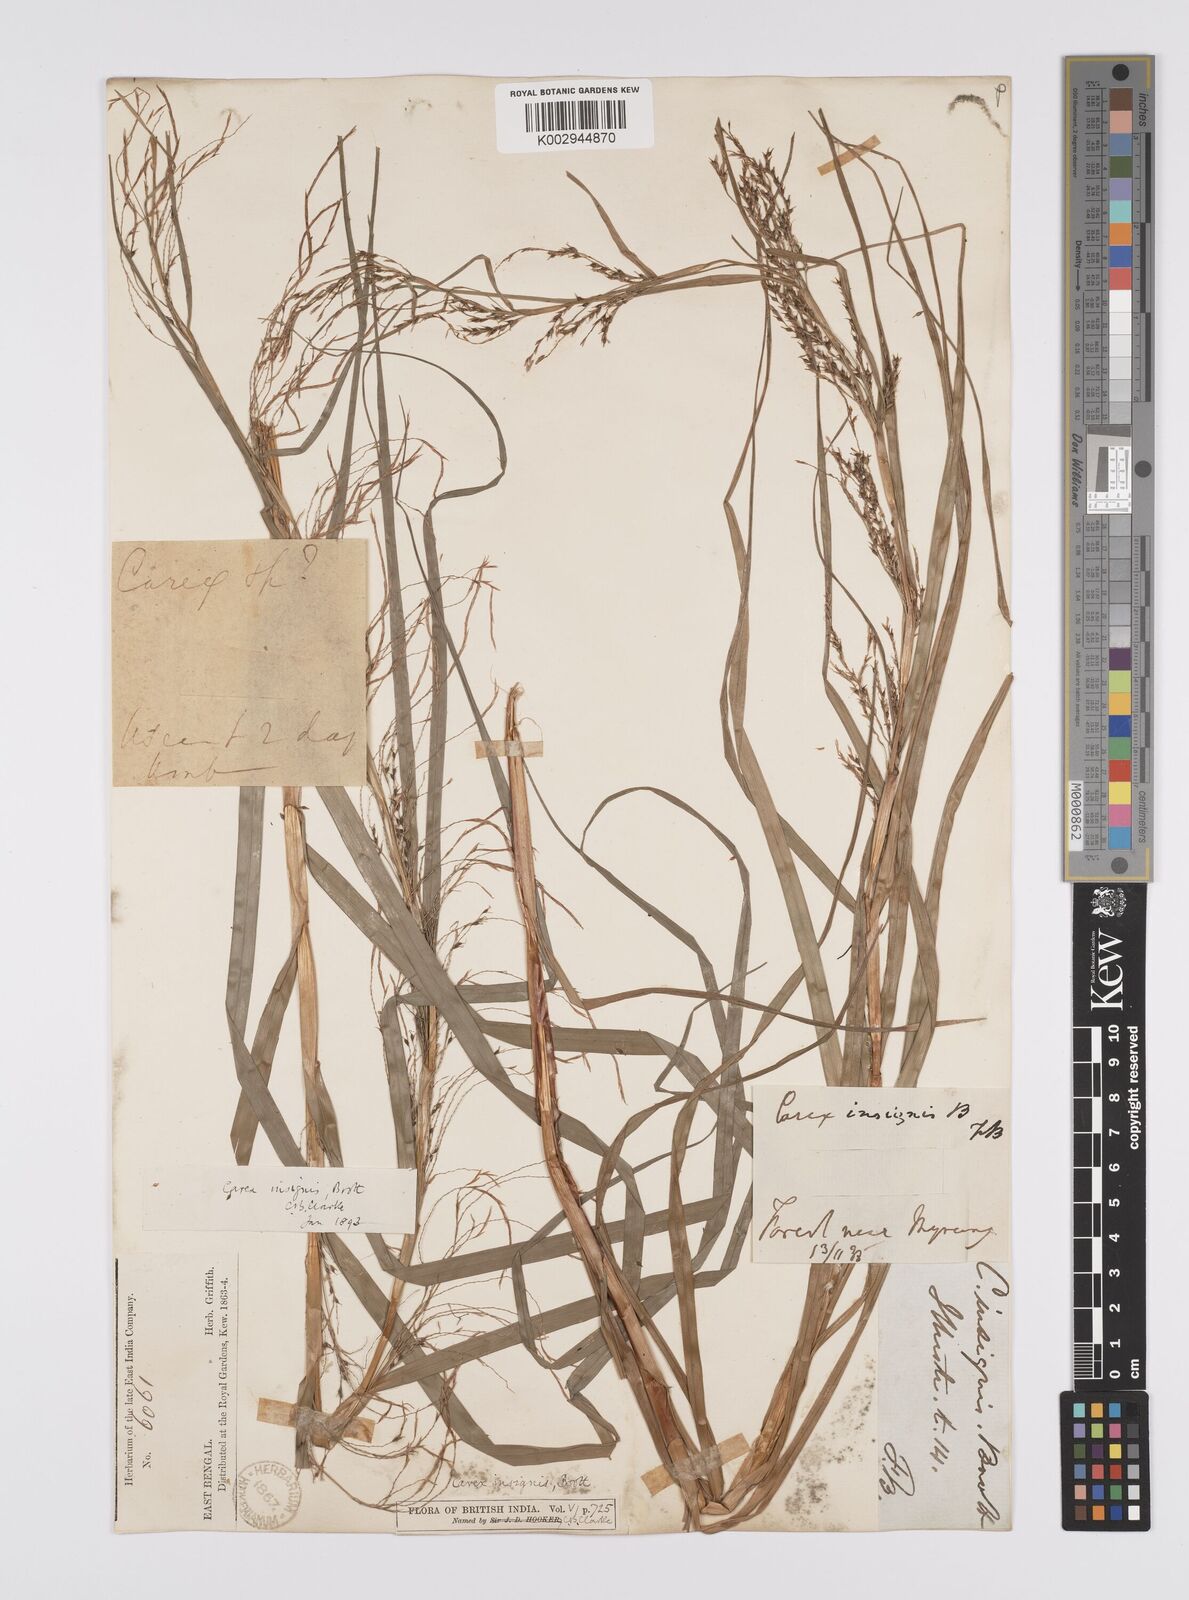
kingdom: Plantae
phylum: Tracheophyta
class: Liliopsida
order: Poales
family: Cyperaceae
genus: Carex
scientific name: Carex insignis
